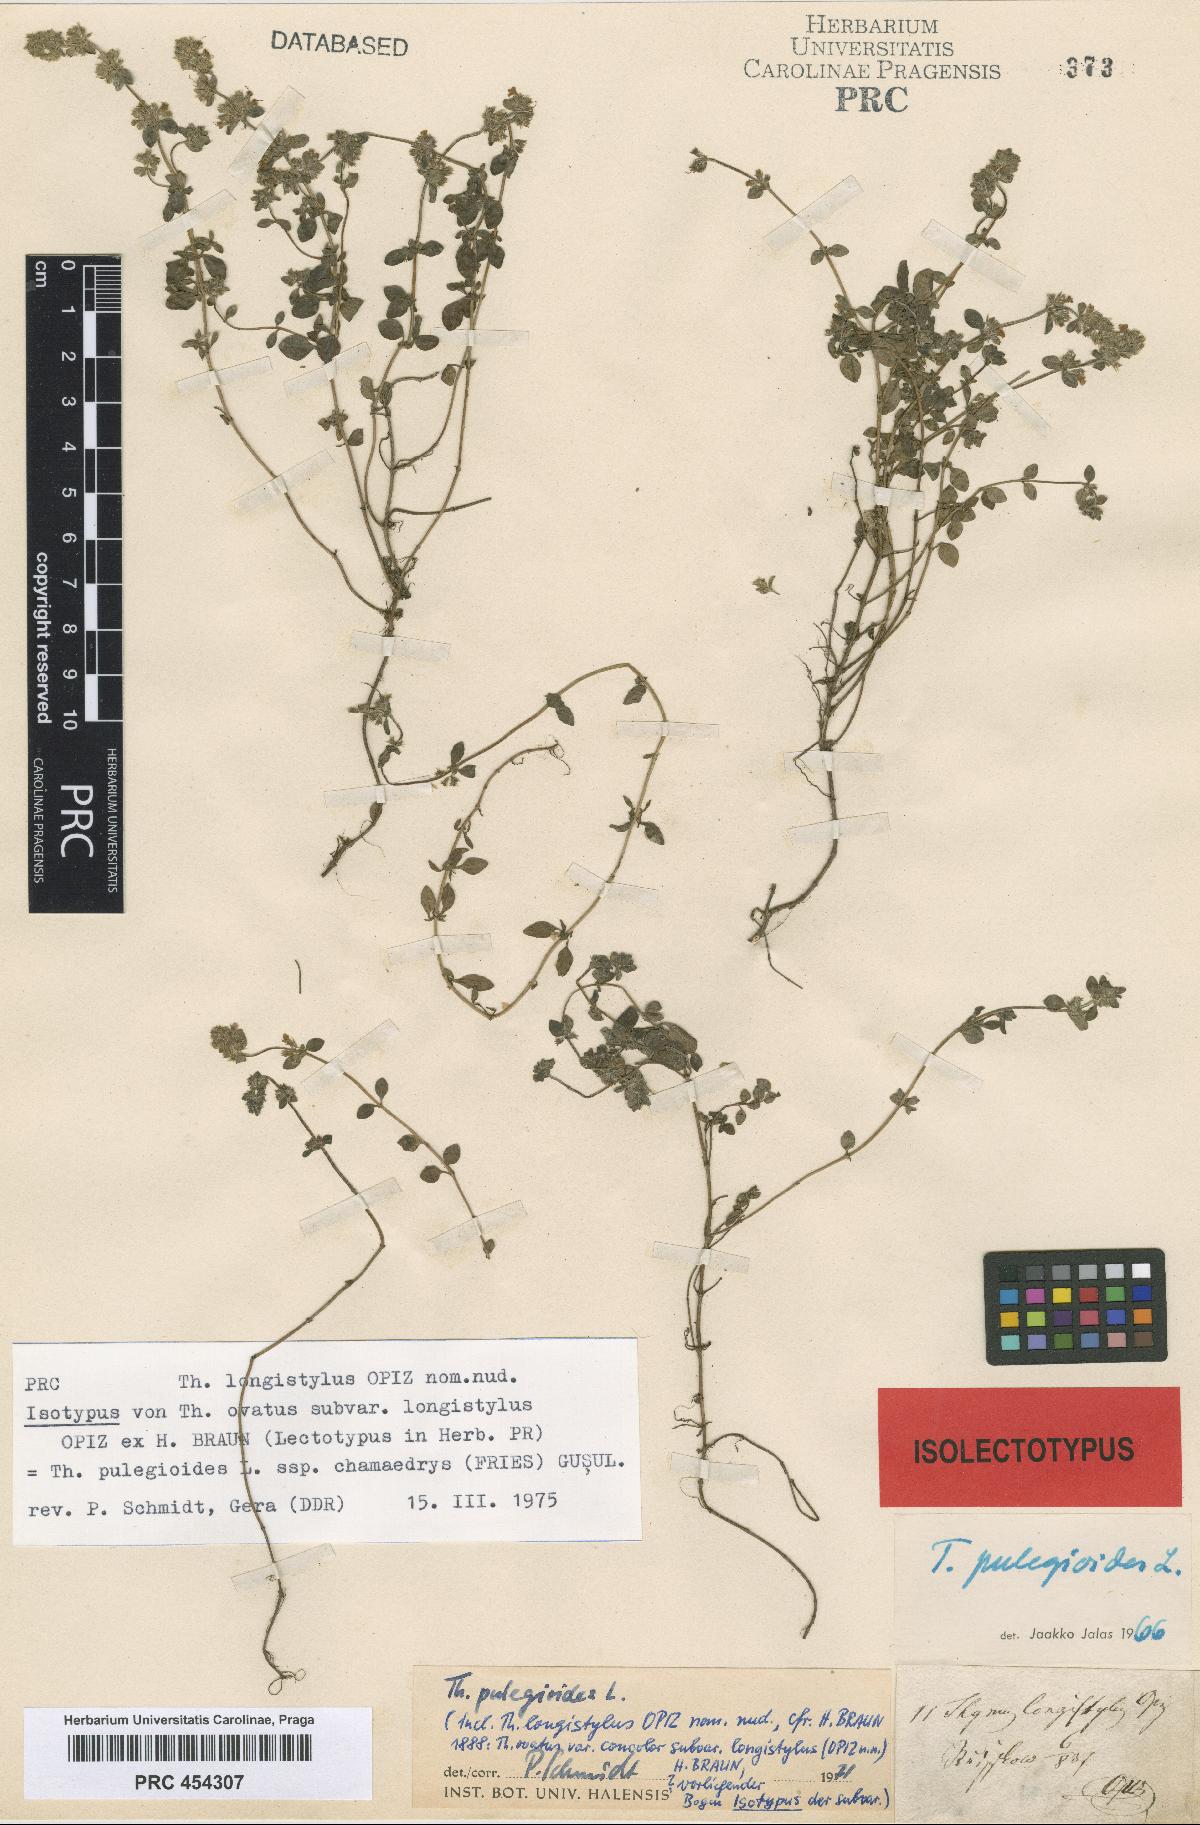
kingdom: Plantae
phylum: Tracheophyta
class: Magnoliopsida
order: Lamiales
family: Lamiaceae
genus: Thymus
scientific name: Thymus pulegioides
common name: Large thyme
